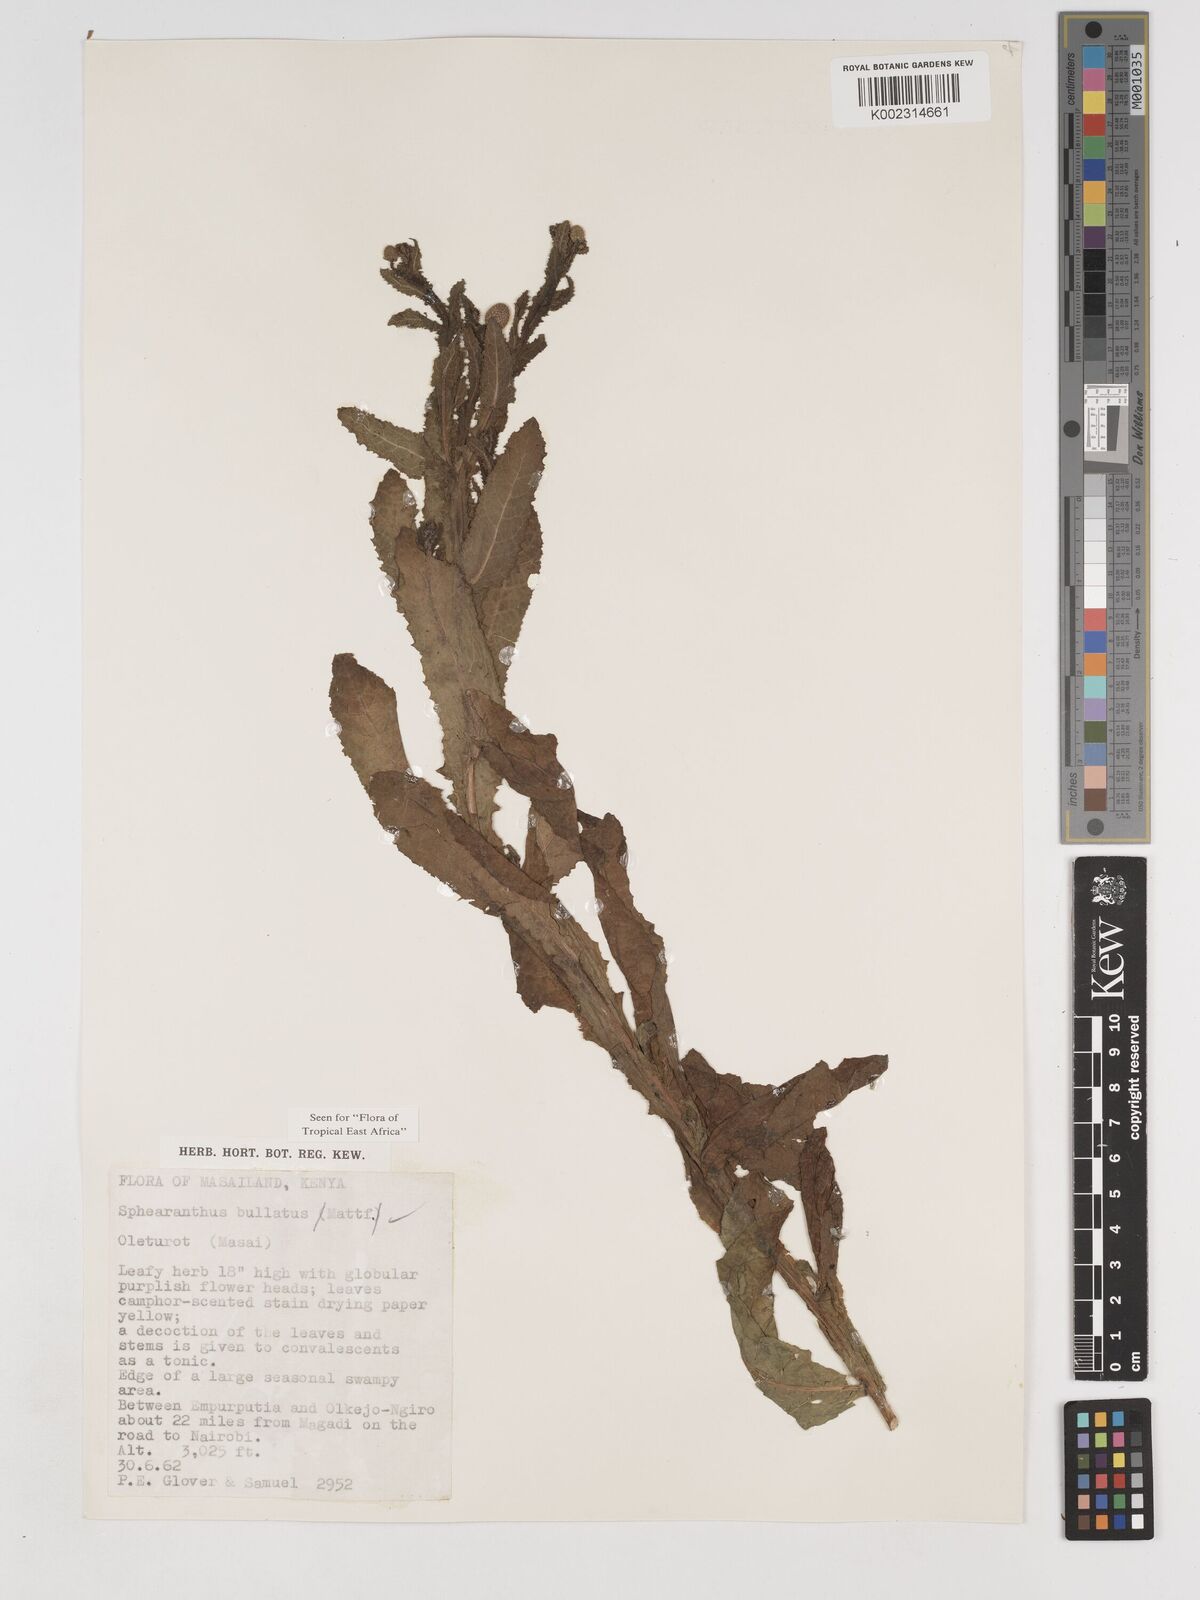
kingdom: Plantae
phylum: Tracheophyta
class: Magnoliopsida
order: Asterales
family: Asteraceae
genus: Sphaeranthus
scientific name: Sphaeranthus bullatus
